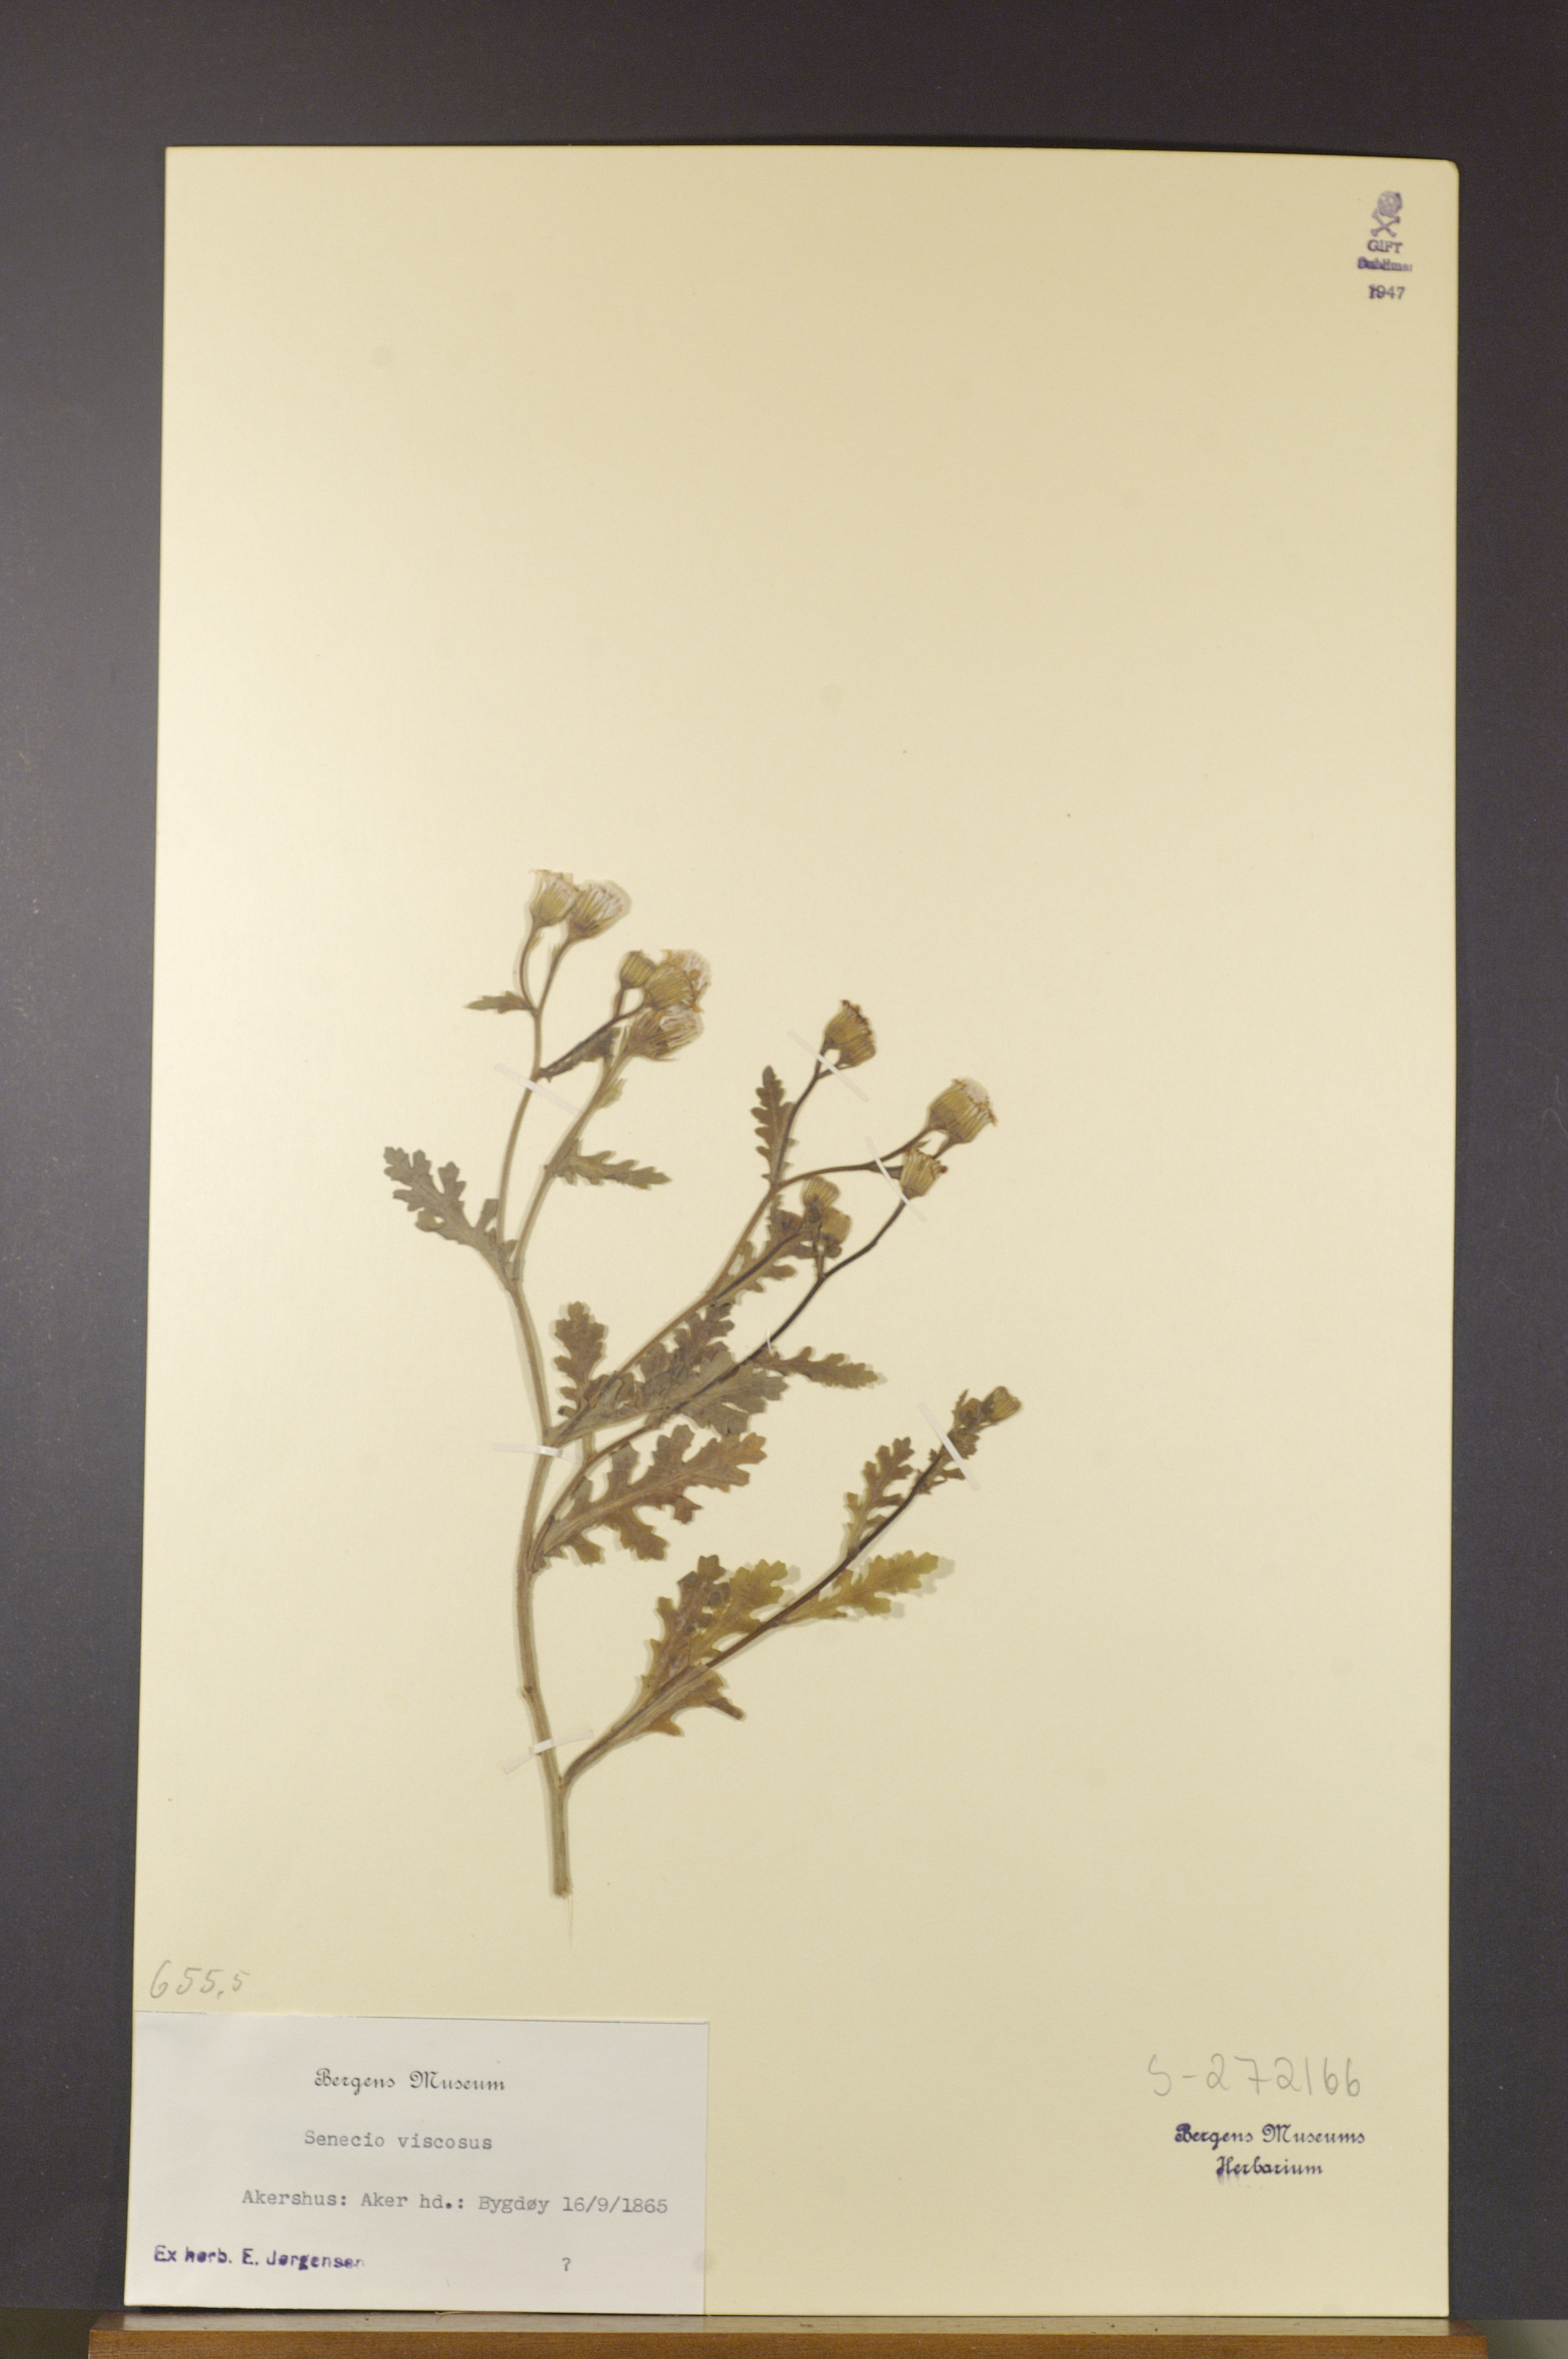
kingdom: Plantae
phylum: Tracheophyta
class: Magnoliopsida
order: Asterales
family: Asteraceae
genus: Senecio
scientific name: Senecio viscosus
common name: Sticky groundsel
